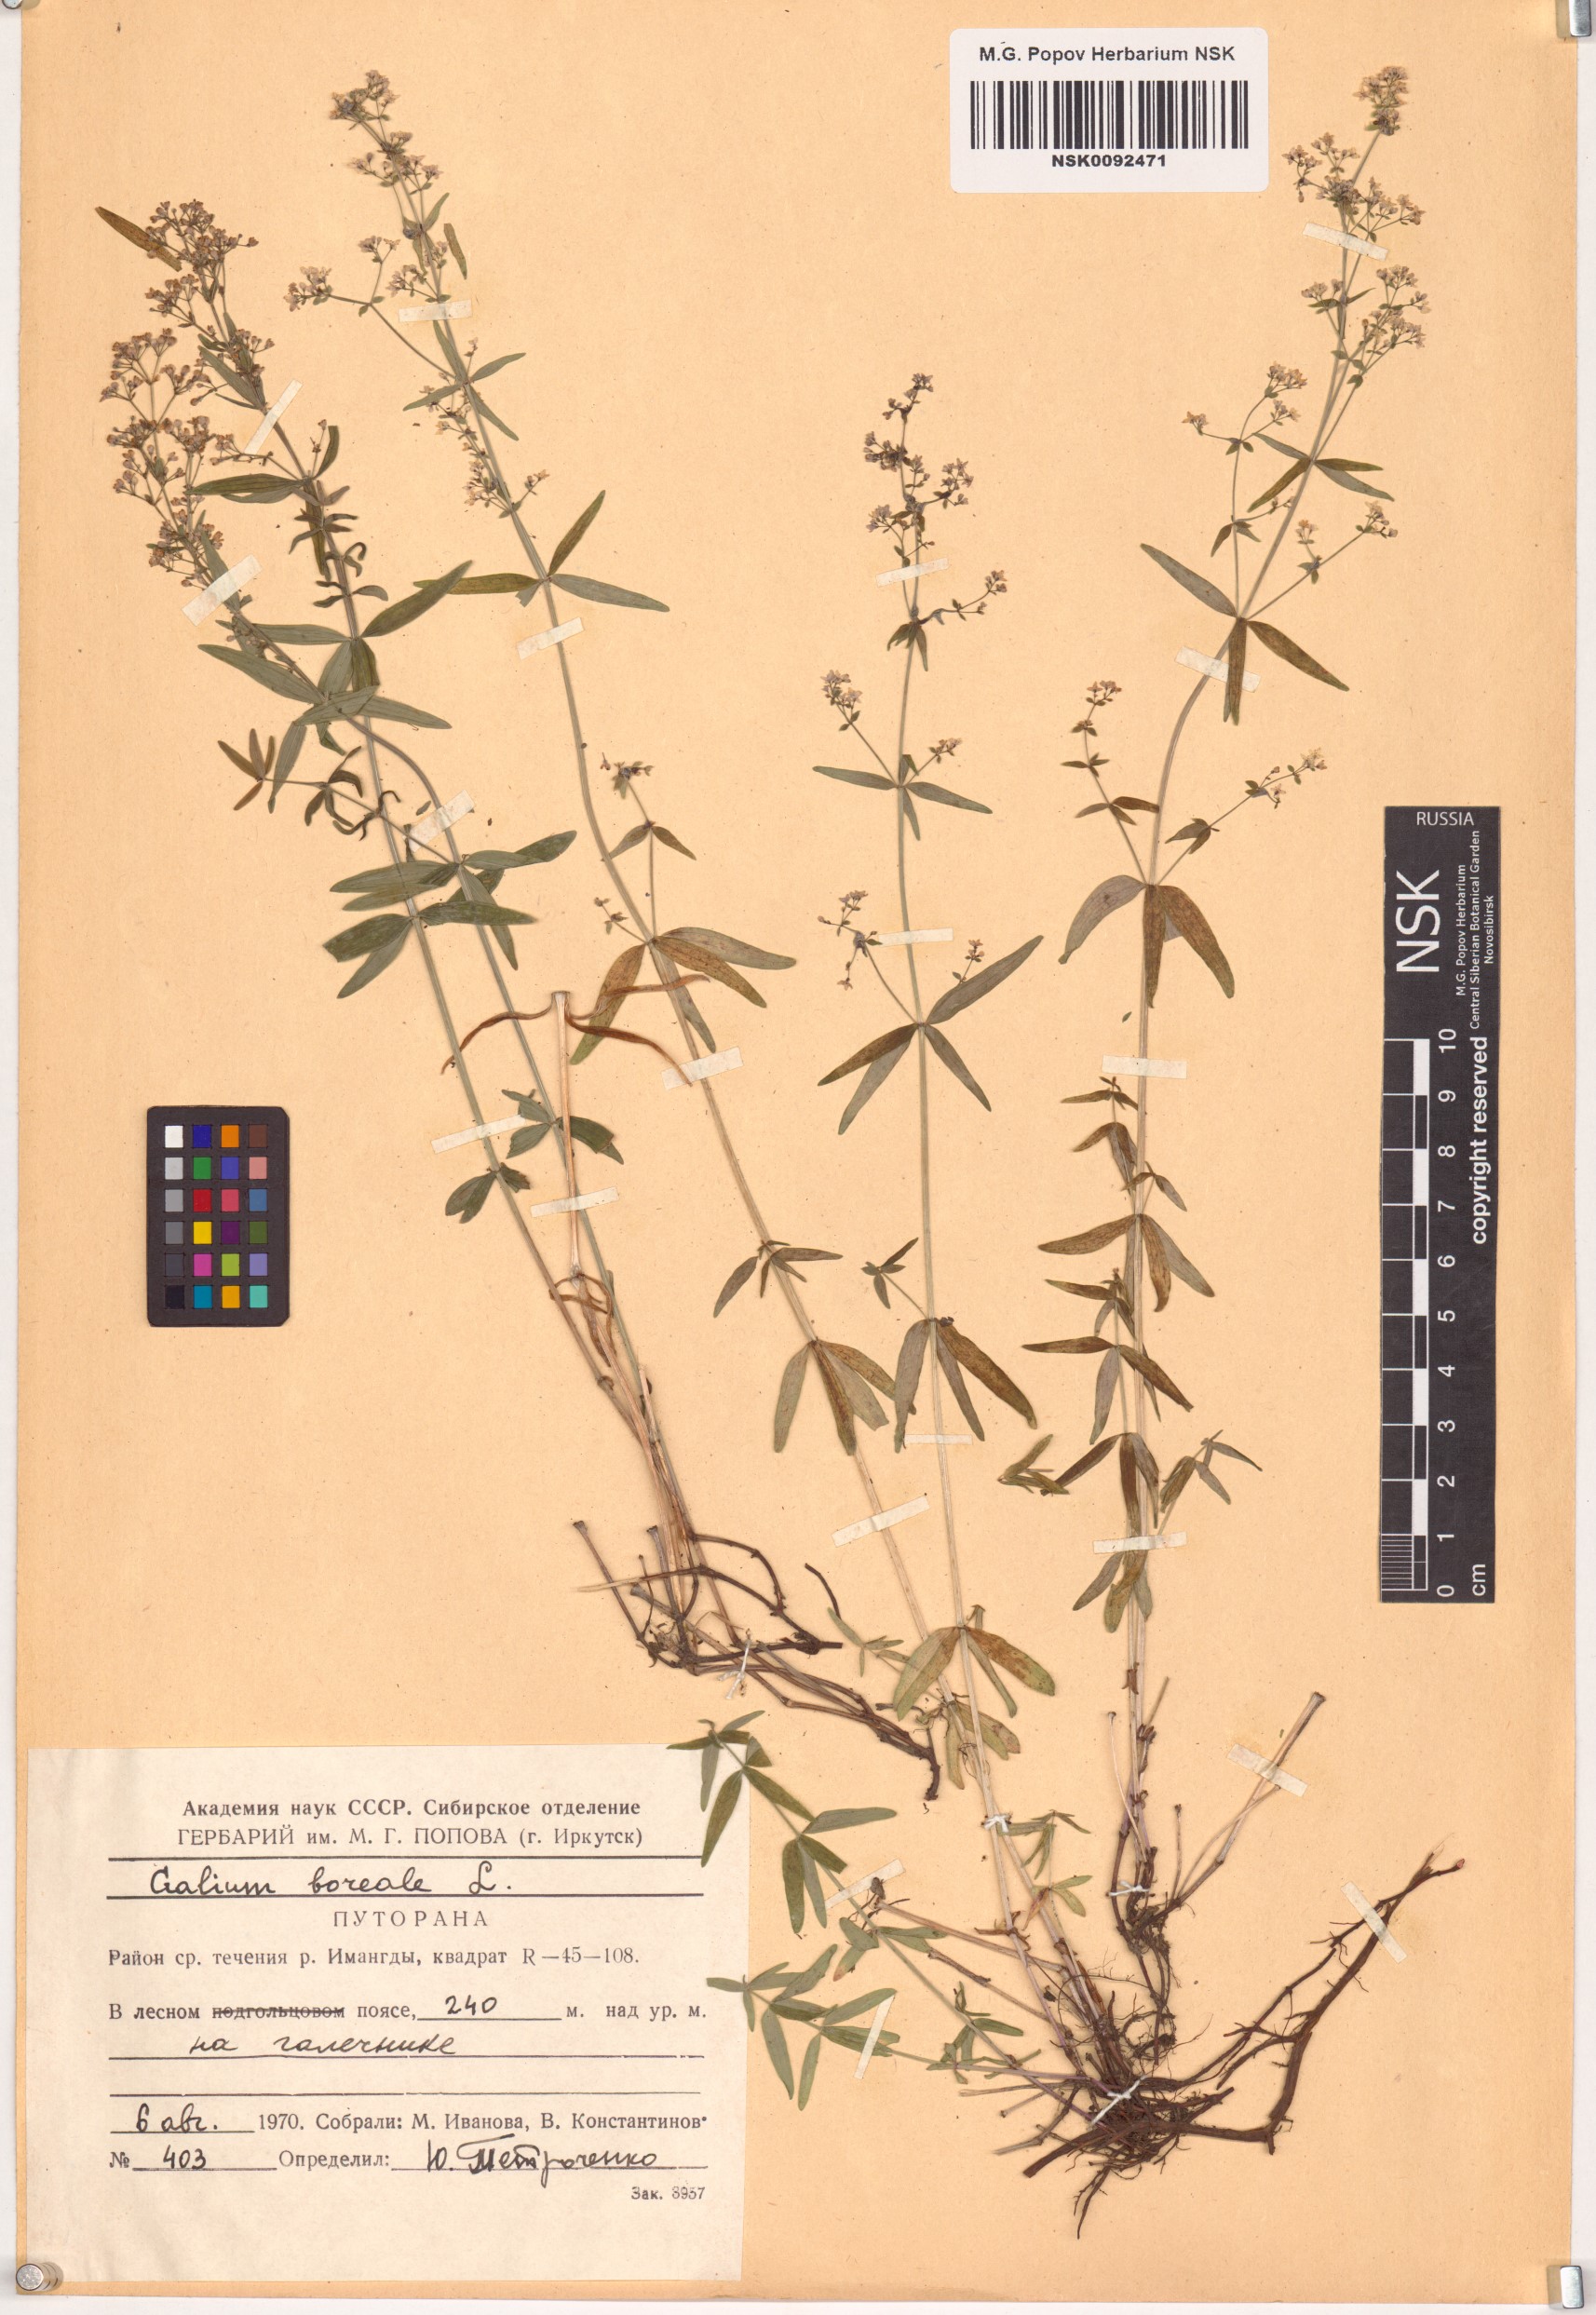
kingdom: Plantae
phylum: Tracheophyta
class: Magnoliopsida
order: Gentianales
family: Rubiaceae
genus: Galium
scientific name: Galium boreale
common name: Northern bedstraw
